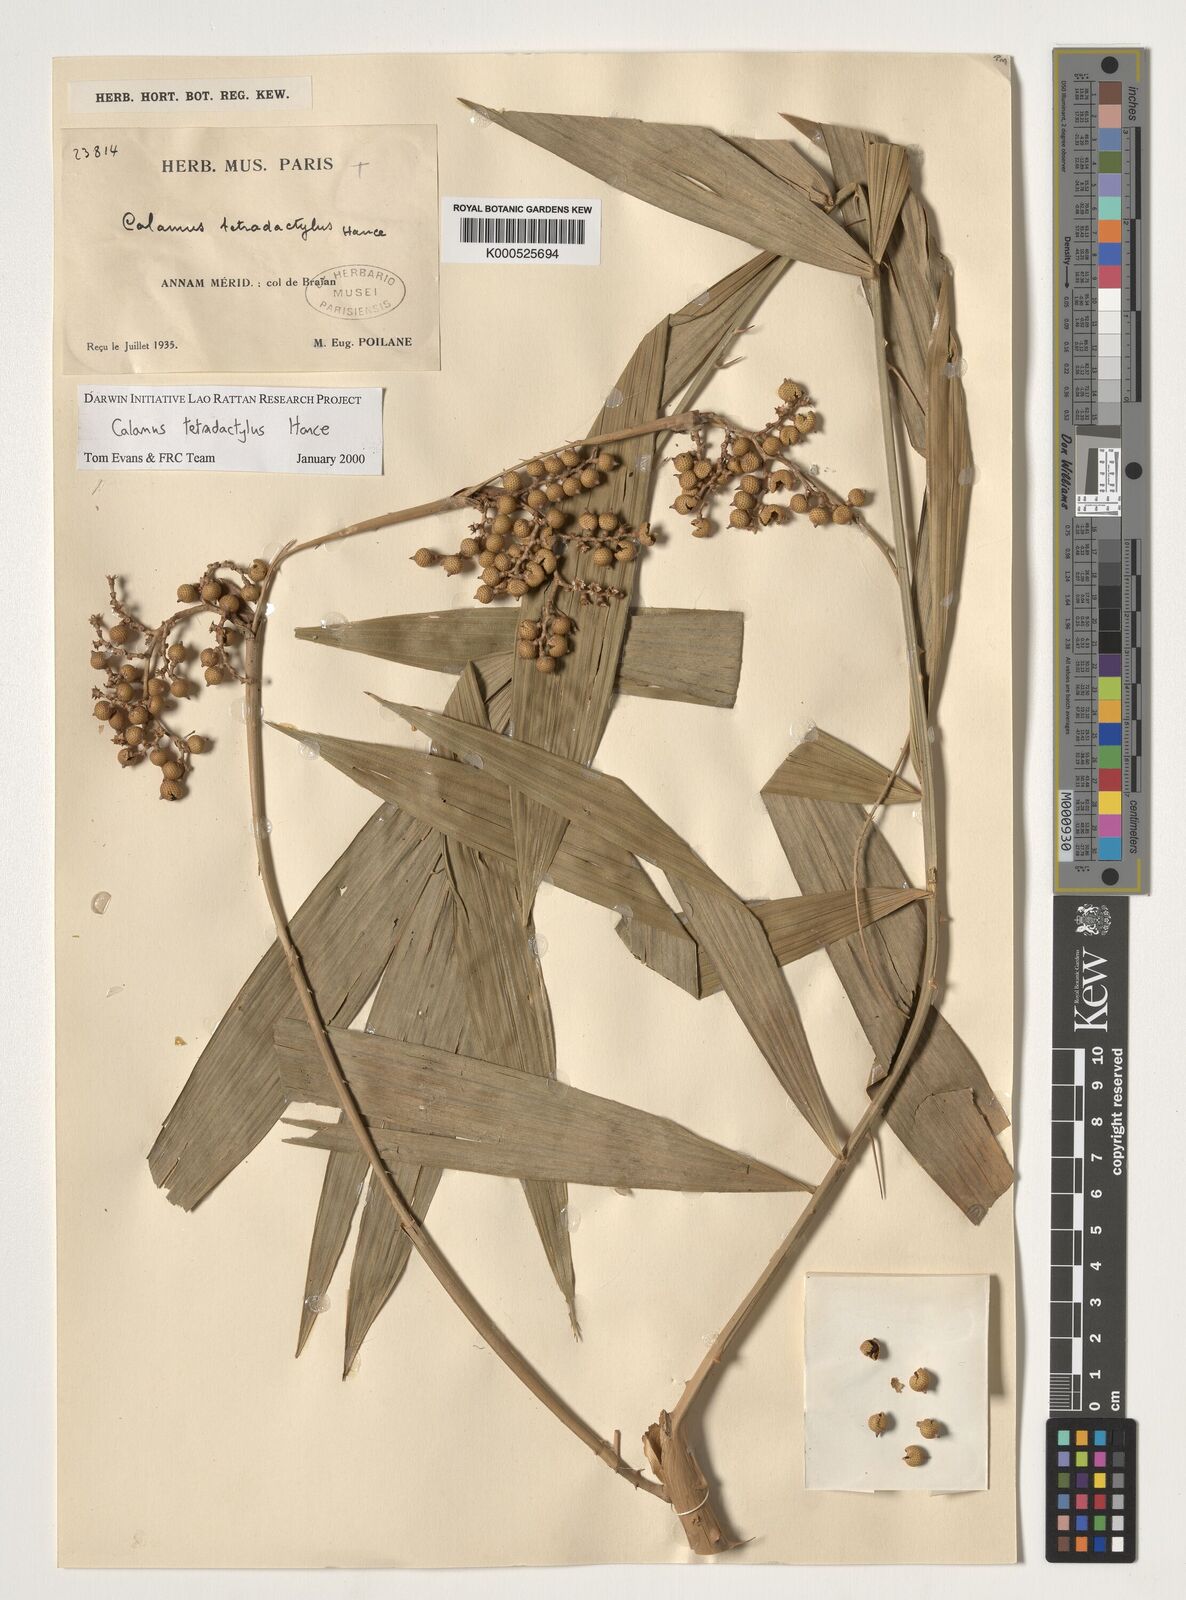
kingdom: Plantae
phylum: Tracheophyta
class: Liliopsida
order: Arecales
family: Arecaceae
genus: Calamus
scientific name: Calamus tetradactylus
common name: White rattan
